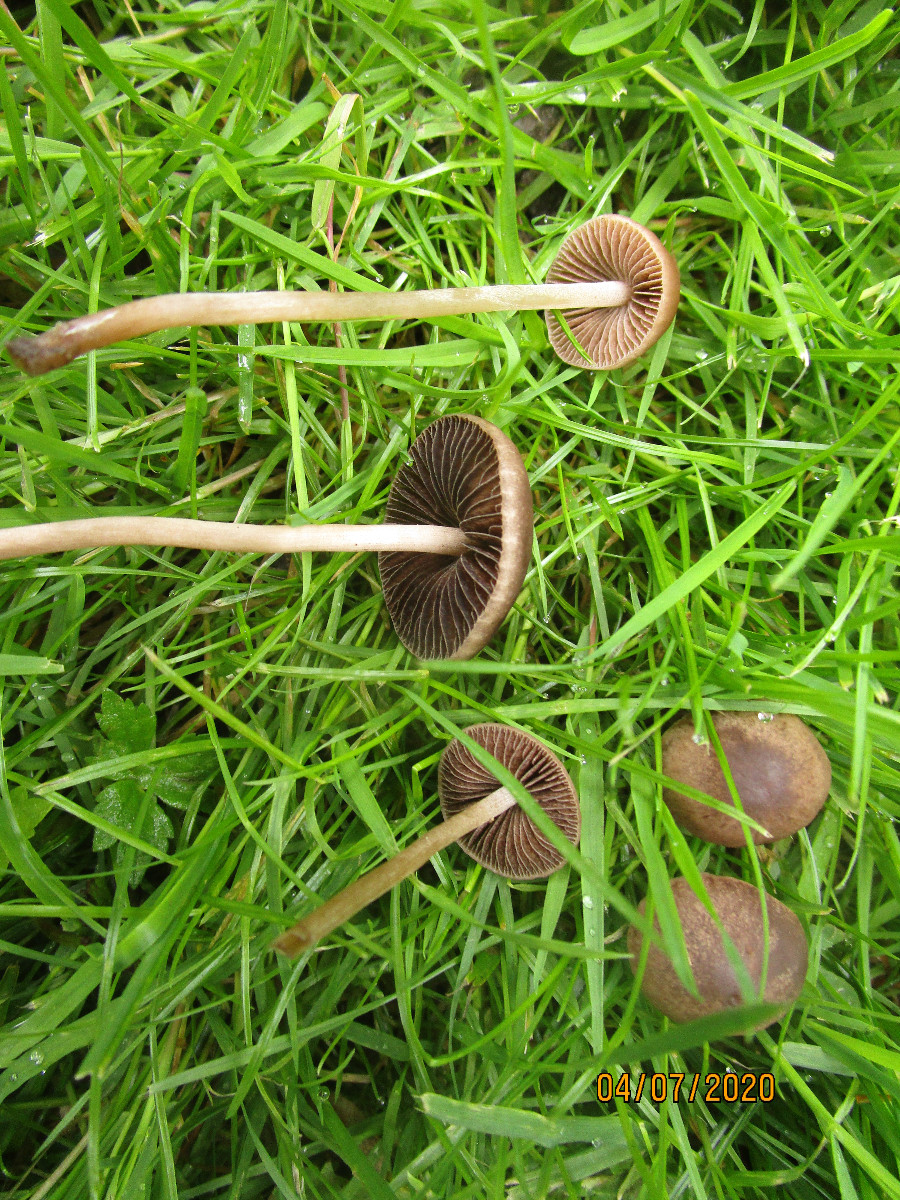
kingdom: Fungi
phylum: Basidiomycota
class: Agaricomycetes
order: Agaricales
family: Bolbitiaceae
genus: Panaeolina
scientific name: Panaeolina foenisecii
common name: høslætsvamp
